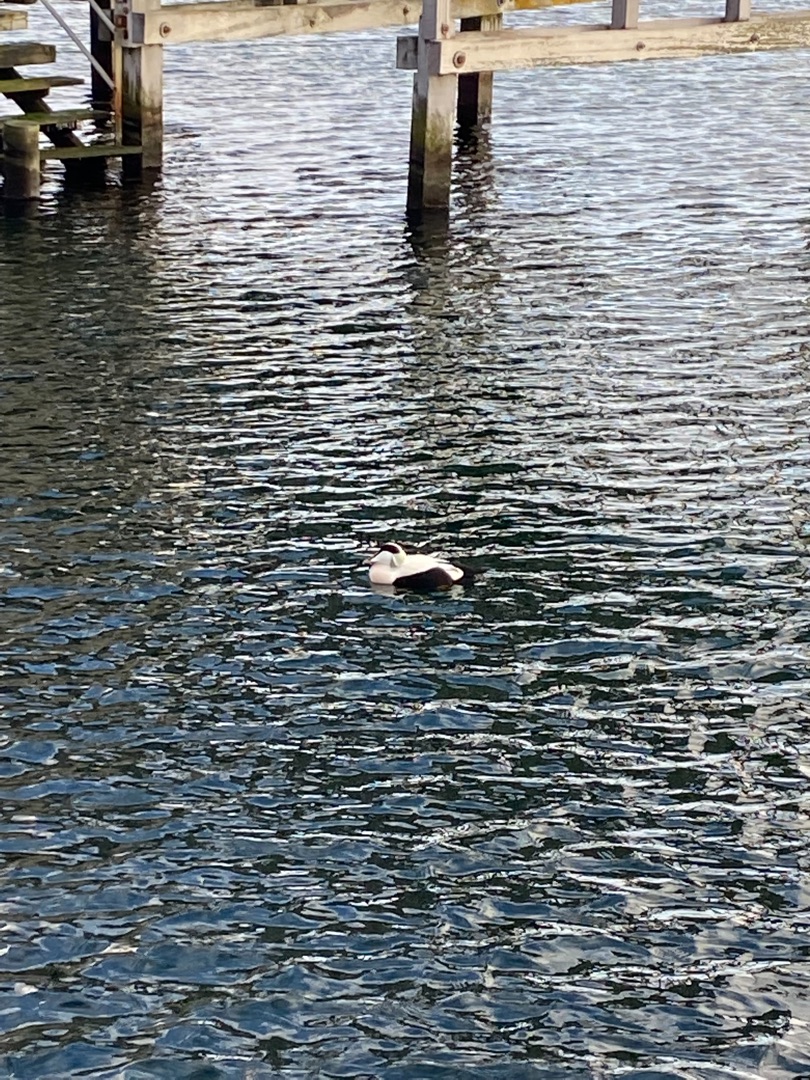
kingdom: Animalia
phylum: Chordata
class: Aves
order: Anseriformes
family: Anatidae
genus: Somateria
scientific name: Somateria mollissima
